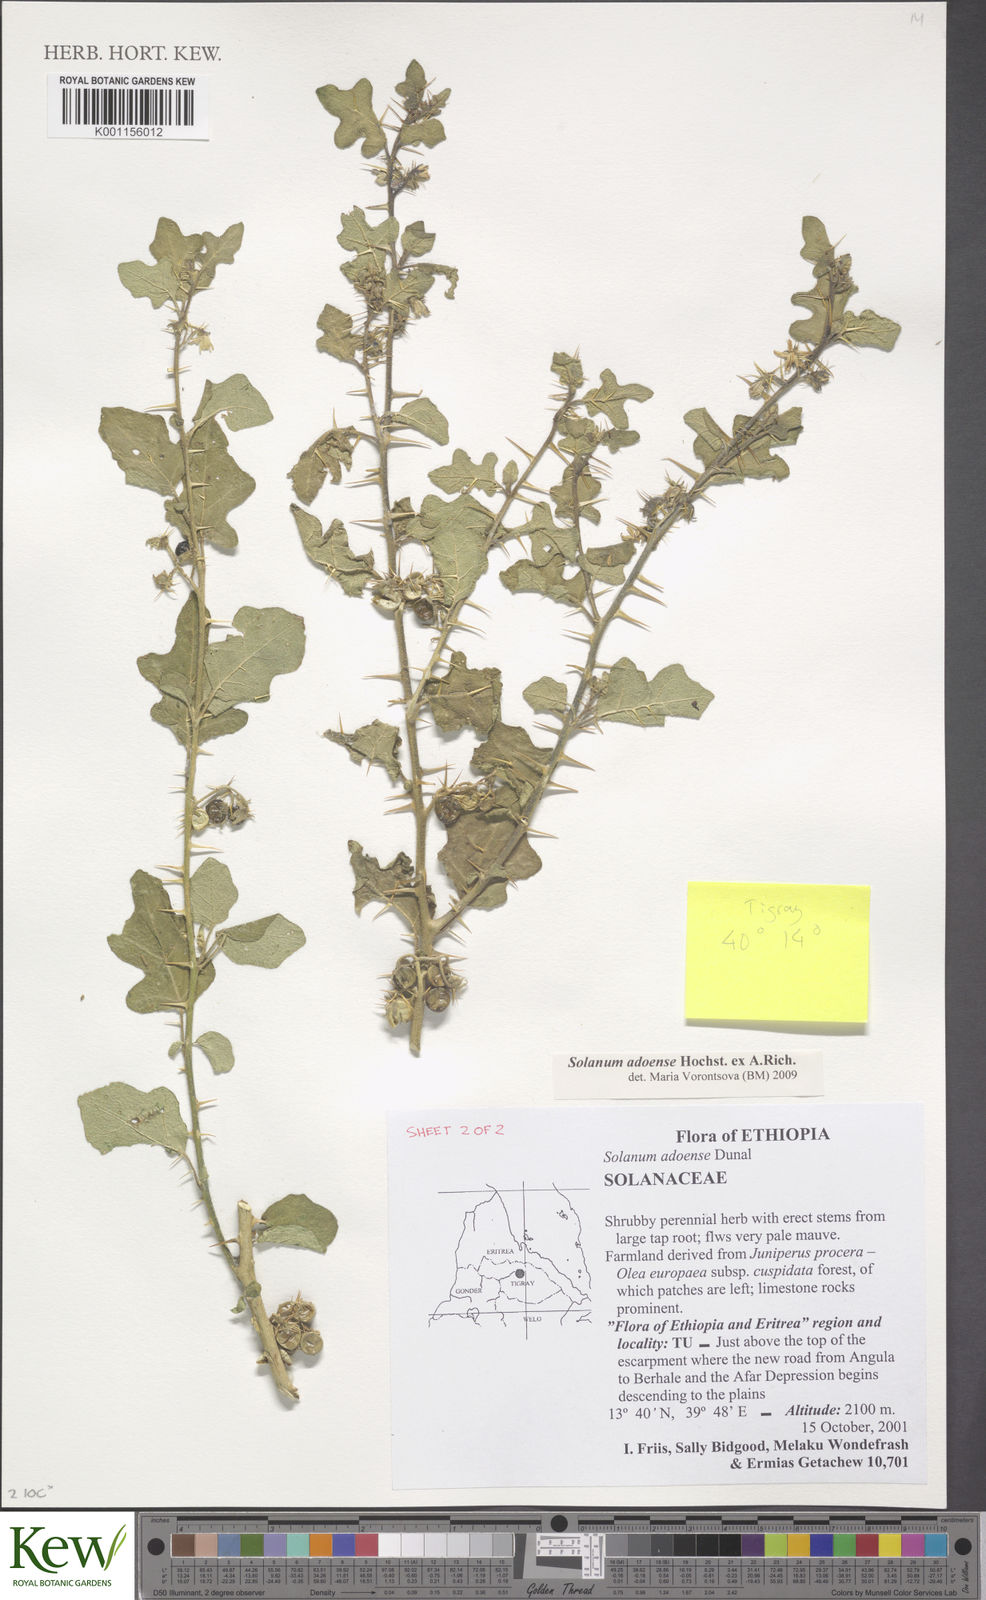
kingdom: Plantae
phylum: Tracheophyta
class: Magnoliopsida
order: Solanales
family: Solanaceae
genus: Solanum
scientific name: Solanum adoense
